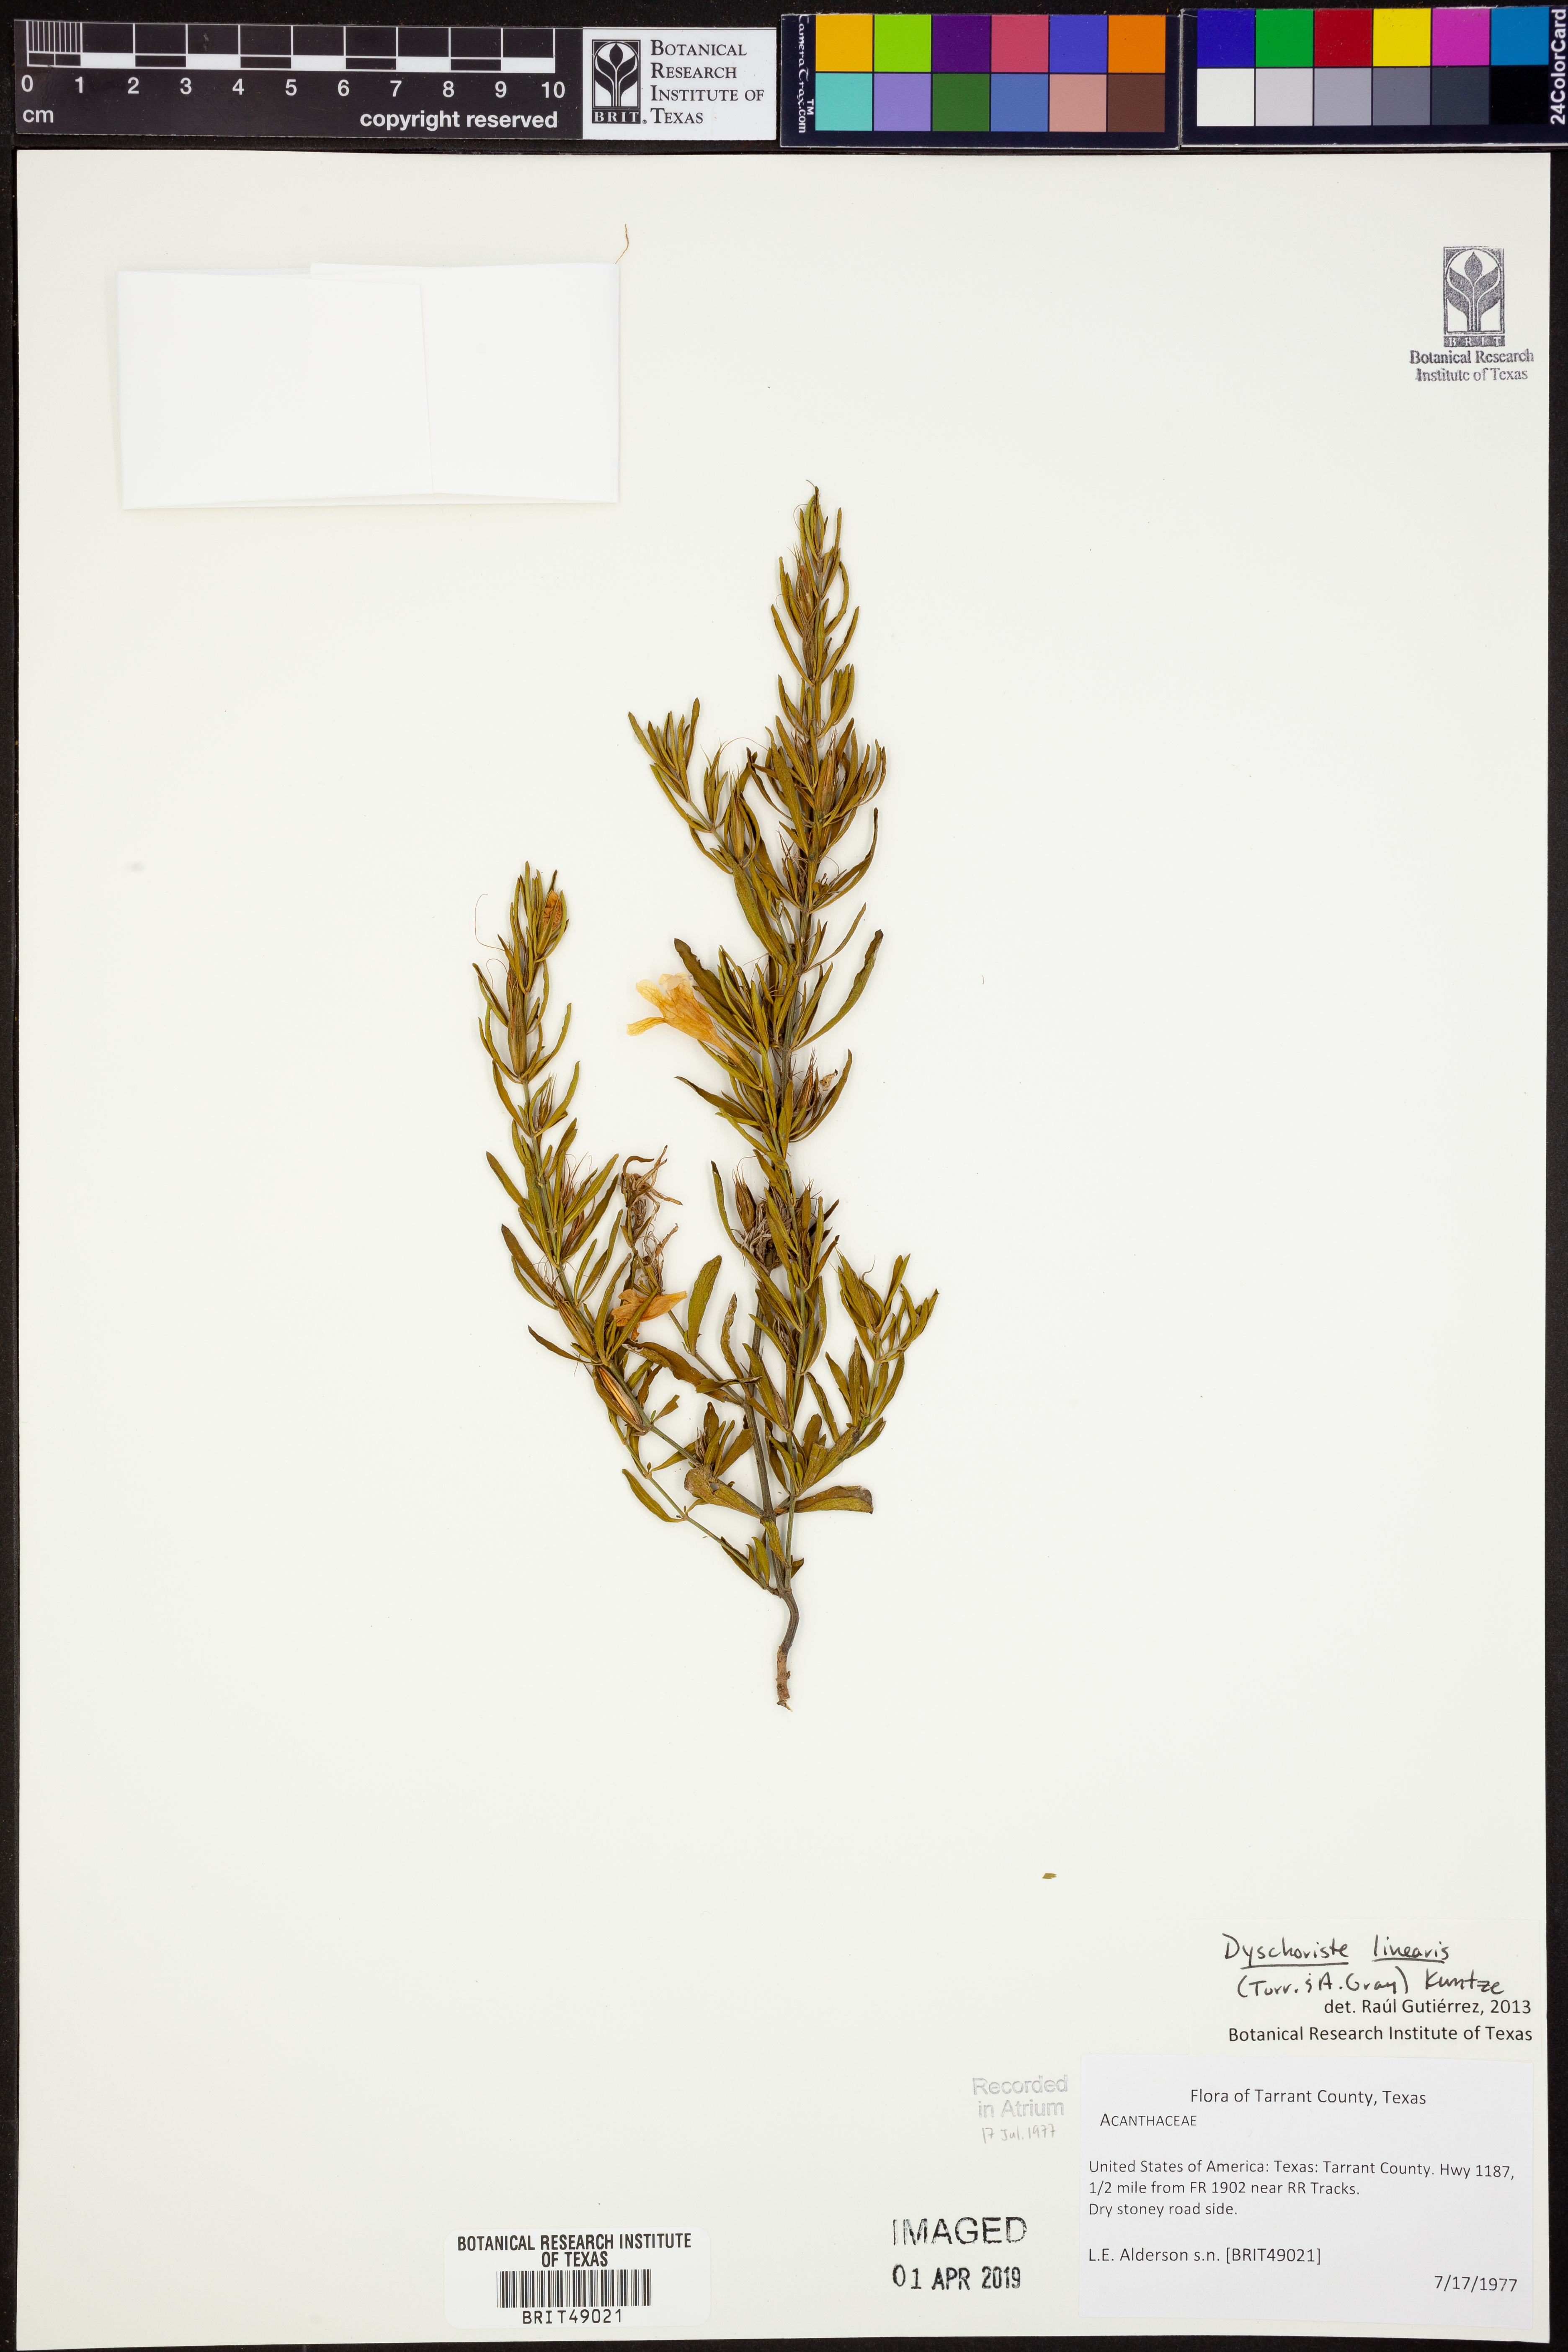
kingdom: Plantae
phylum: Tracheophyta
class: Magnoliopsida
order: Lamiales
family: Acanthaceae
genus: Dyschoriste
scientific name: Dyschoriste linearis
